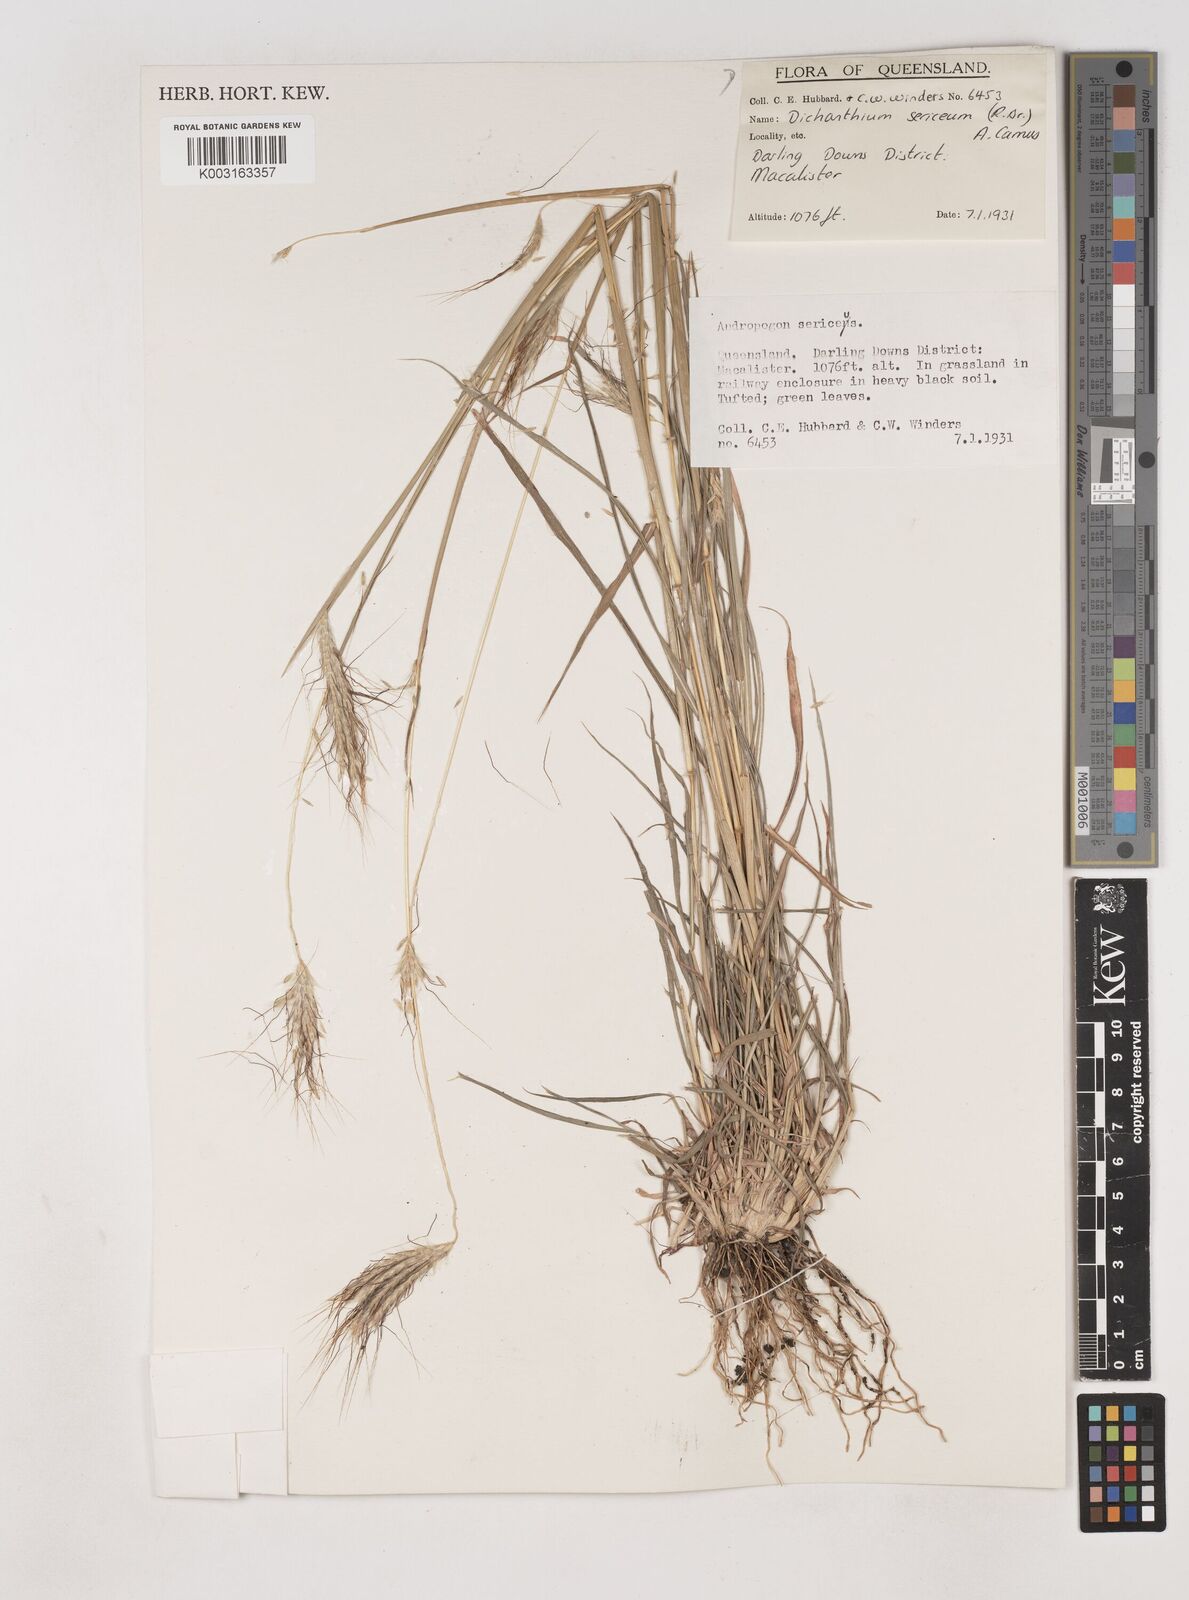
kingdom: Plantae
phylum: Tracheophyta
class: Liliopsida
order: Poales
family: Poaceae
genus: Dichanthium
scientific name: Dichanthium sericeum
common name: Silky bluestem
